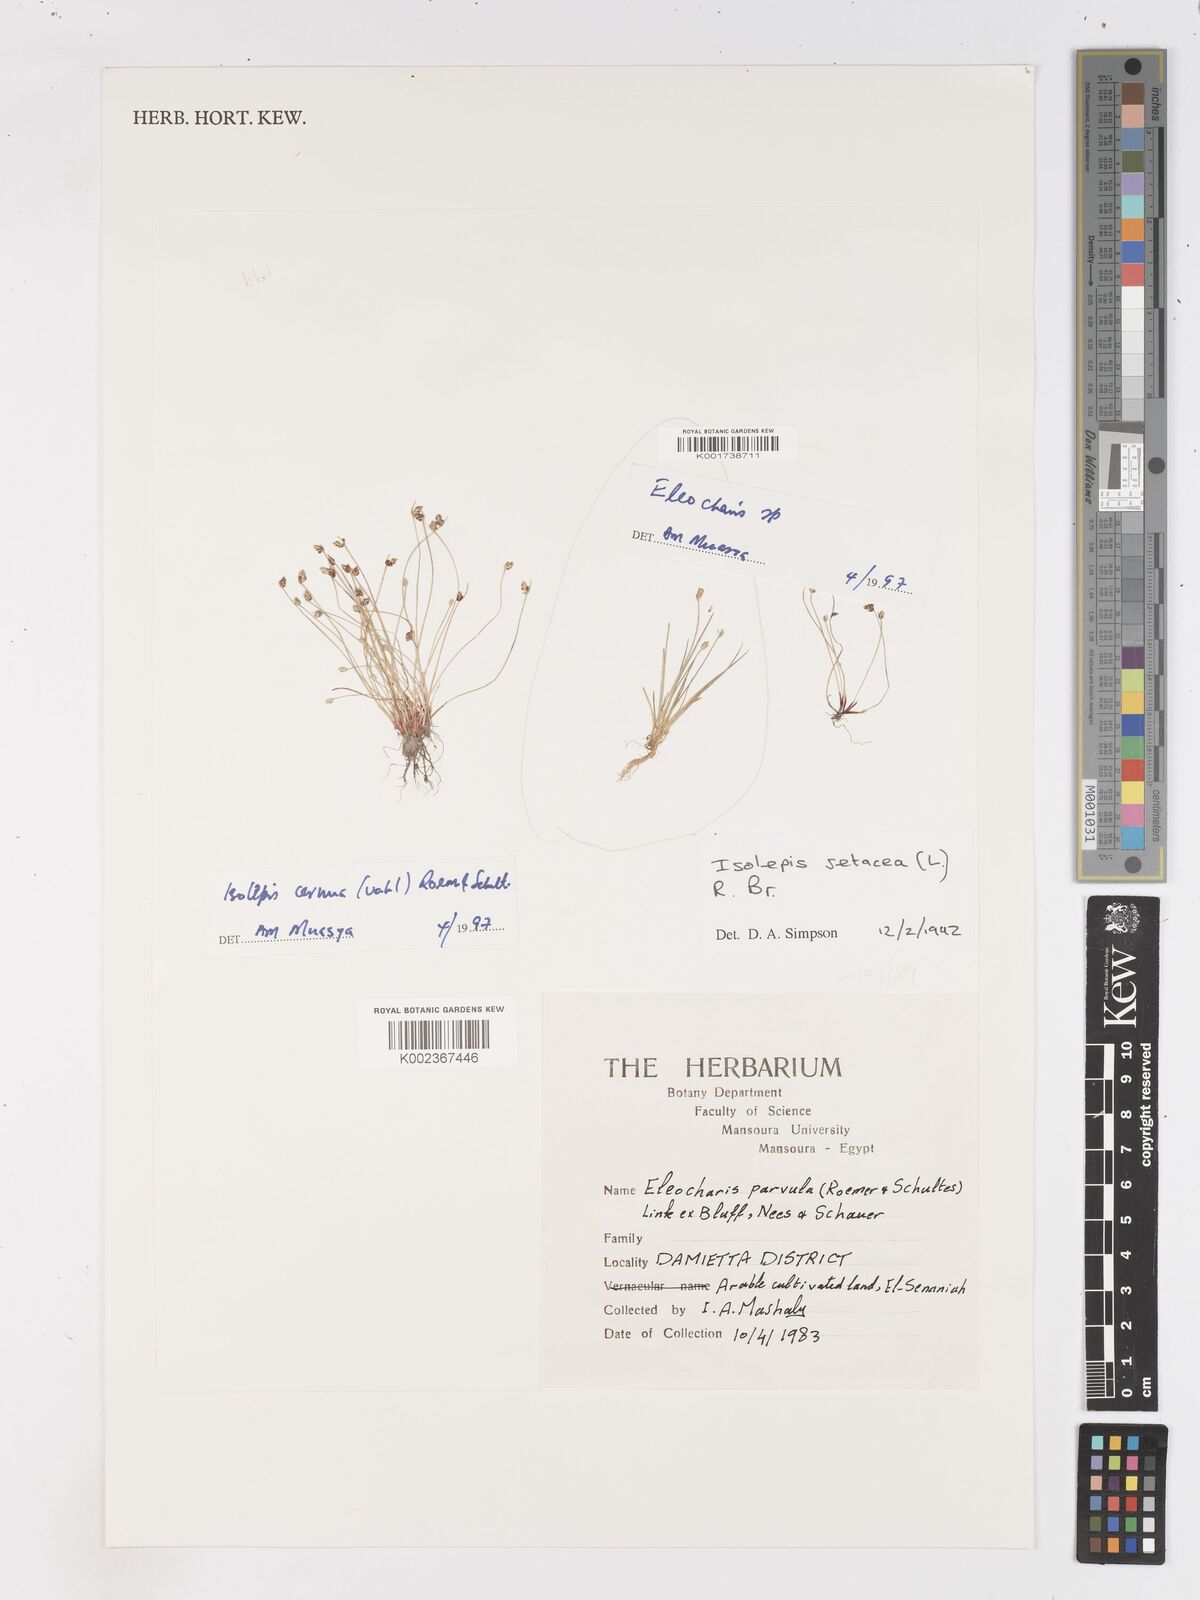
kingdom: Plantae
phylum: Tracheophyta
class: Liliopsida
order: Poales
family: Cyperaceae
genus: Isolepis
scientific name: Isolepis cernua
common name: Slender club-rush
